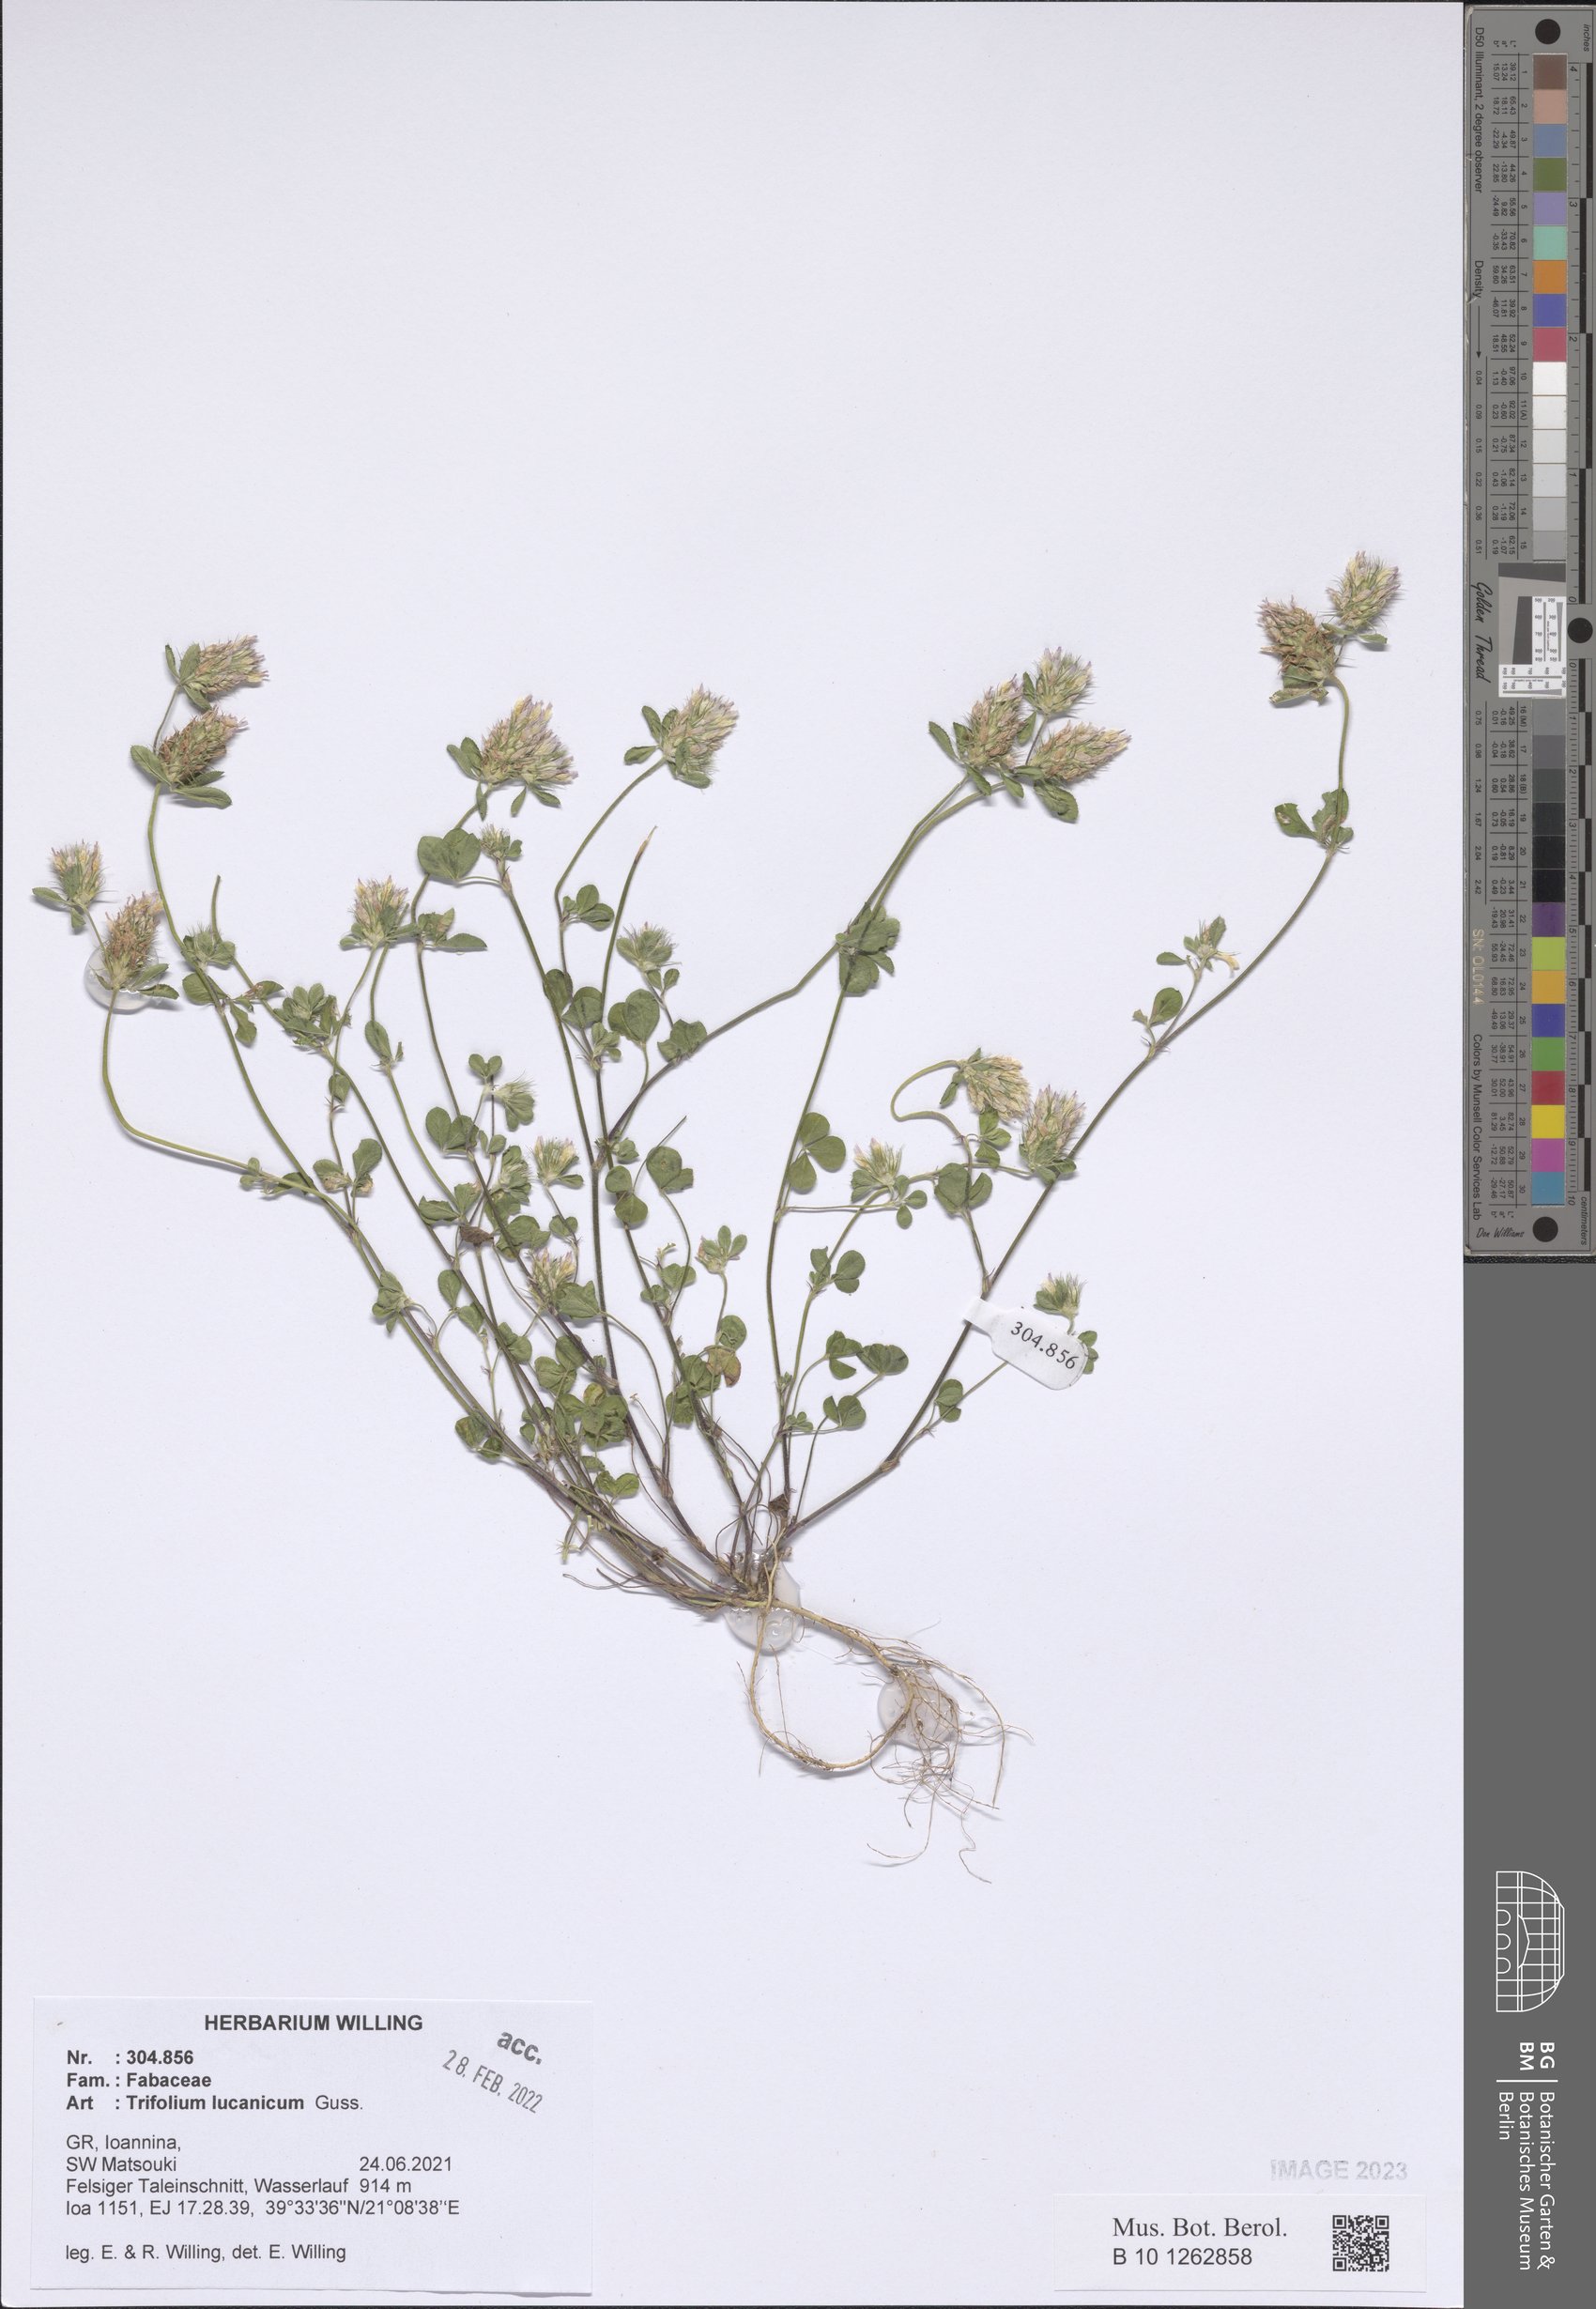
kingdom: Plantae
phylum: Tracheophyta
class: Magnoliopsida
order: Fabales
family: Fabaceae
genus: Trifolium
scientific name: Trifolium lucanicum
